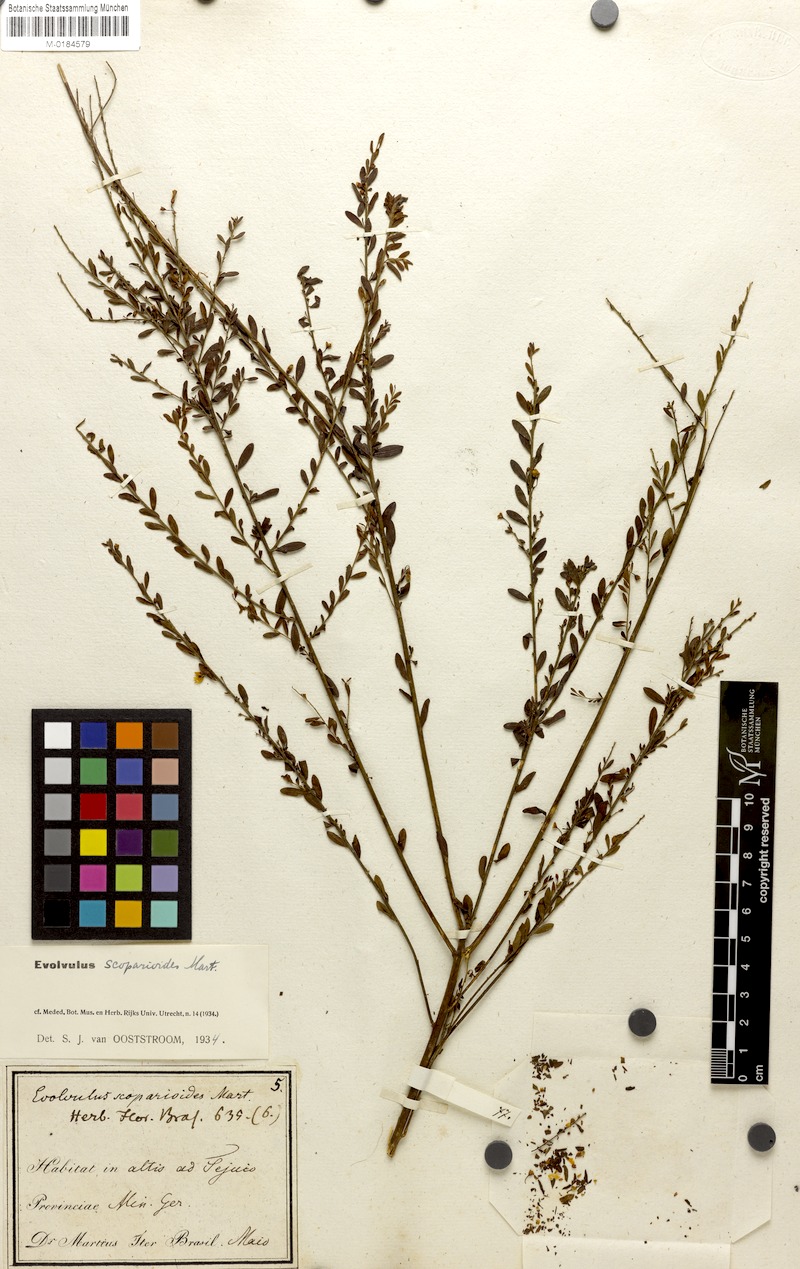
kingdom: Plantae
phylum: Tracheophyta
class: Magnoliopsida
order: Solanales
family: Convolvulaceae
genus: Evolvulus
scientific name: Evolvulus scoparioides
